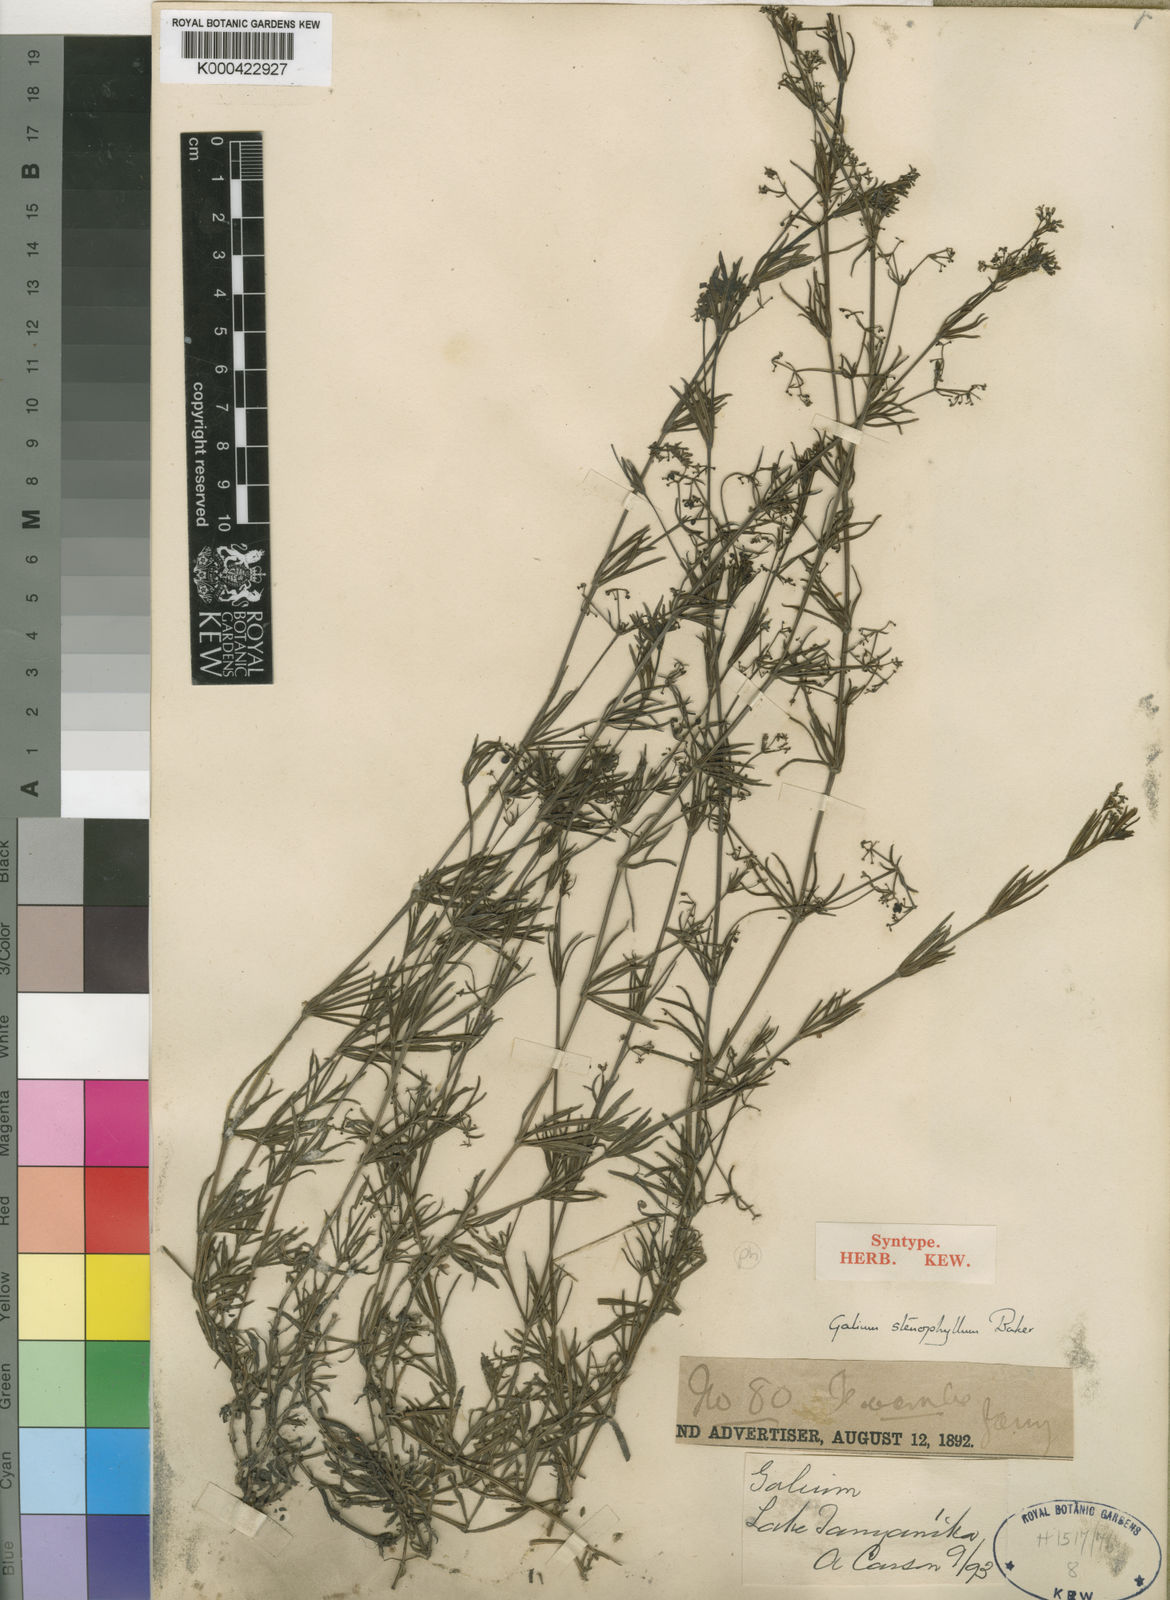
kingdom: Plantae
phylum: Tracheophyta
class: Magnoliopsida
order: Gentianales
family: Rubiaceae
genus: Galium
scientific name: Galium stenophyllum
